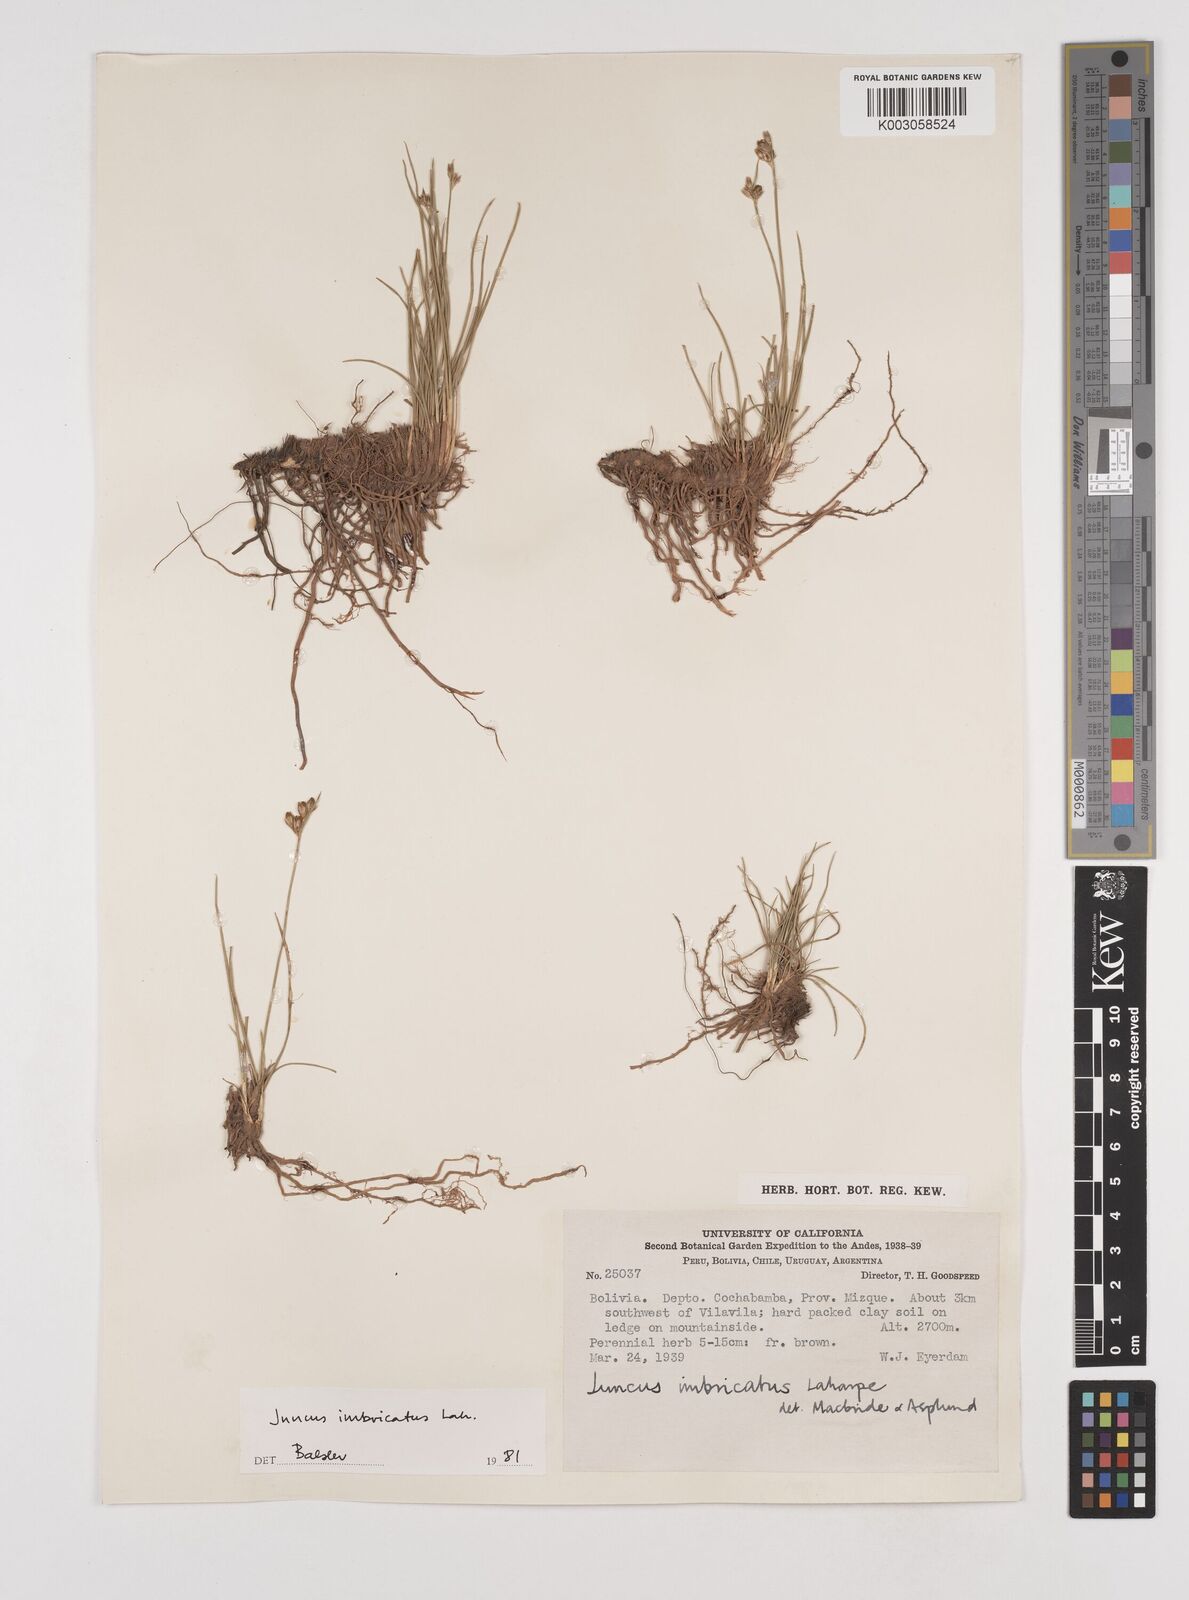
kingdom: Plantae
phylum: Tracheophyta
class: Liliopsida
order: Poales
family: Juncaceae
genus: Juncus
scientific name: Juncus imbricatus
